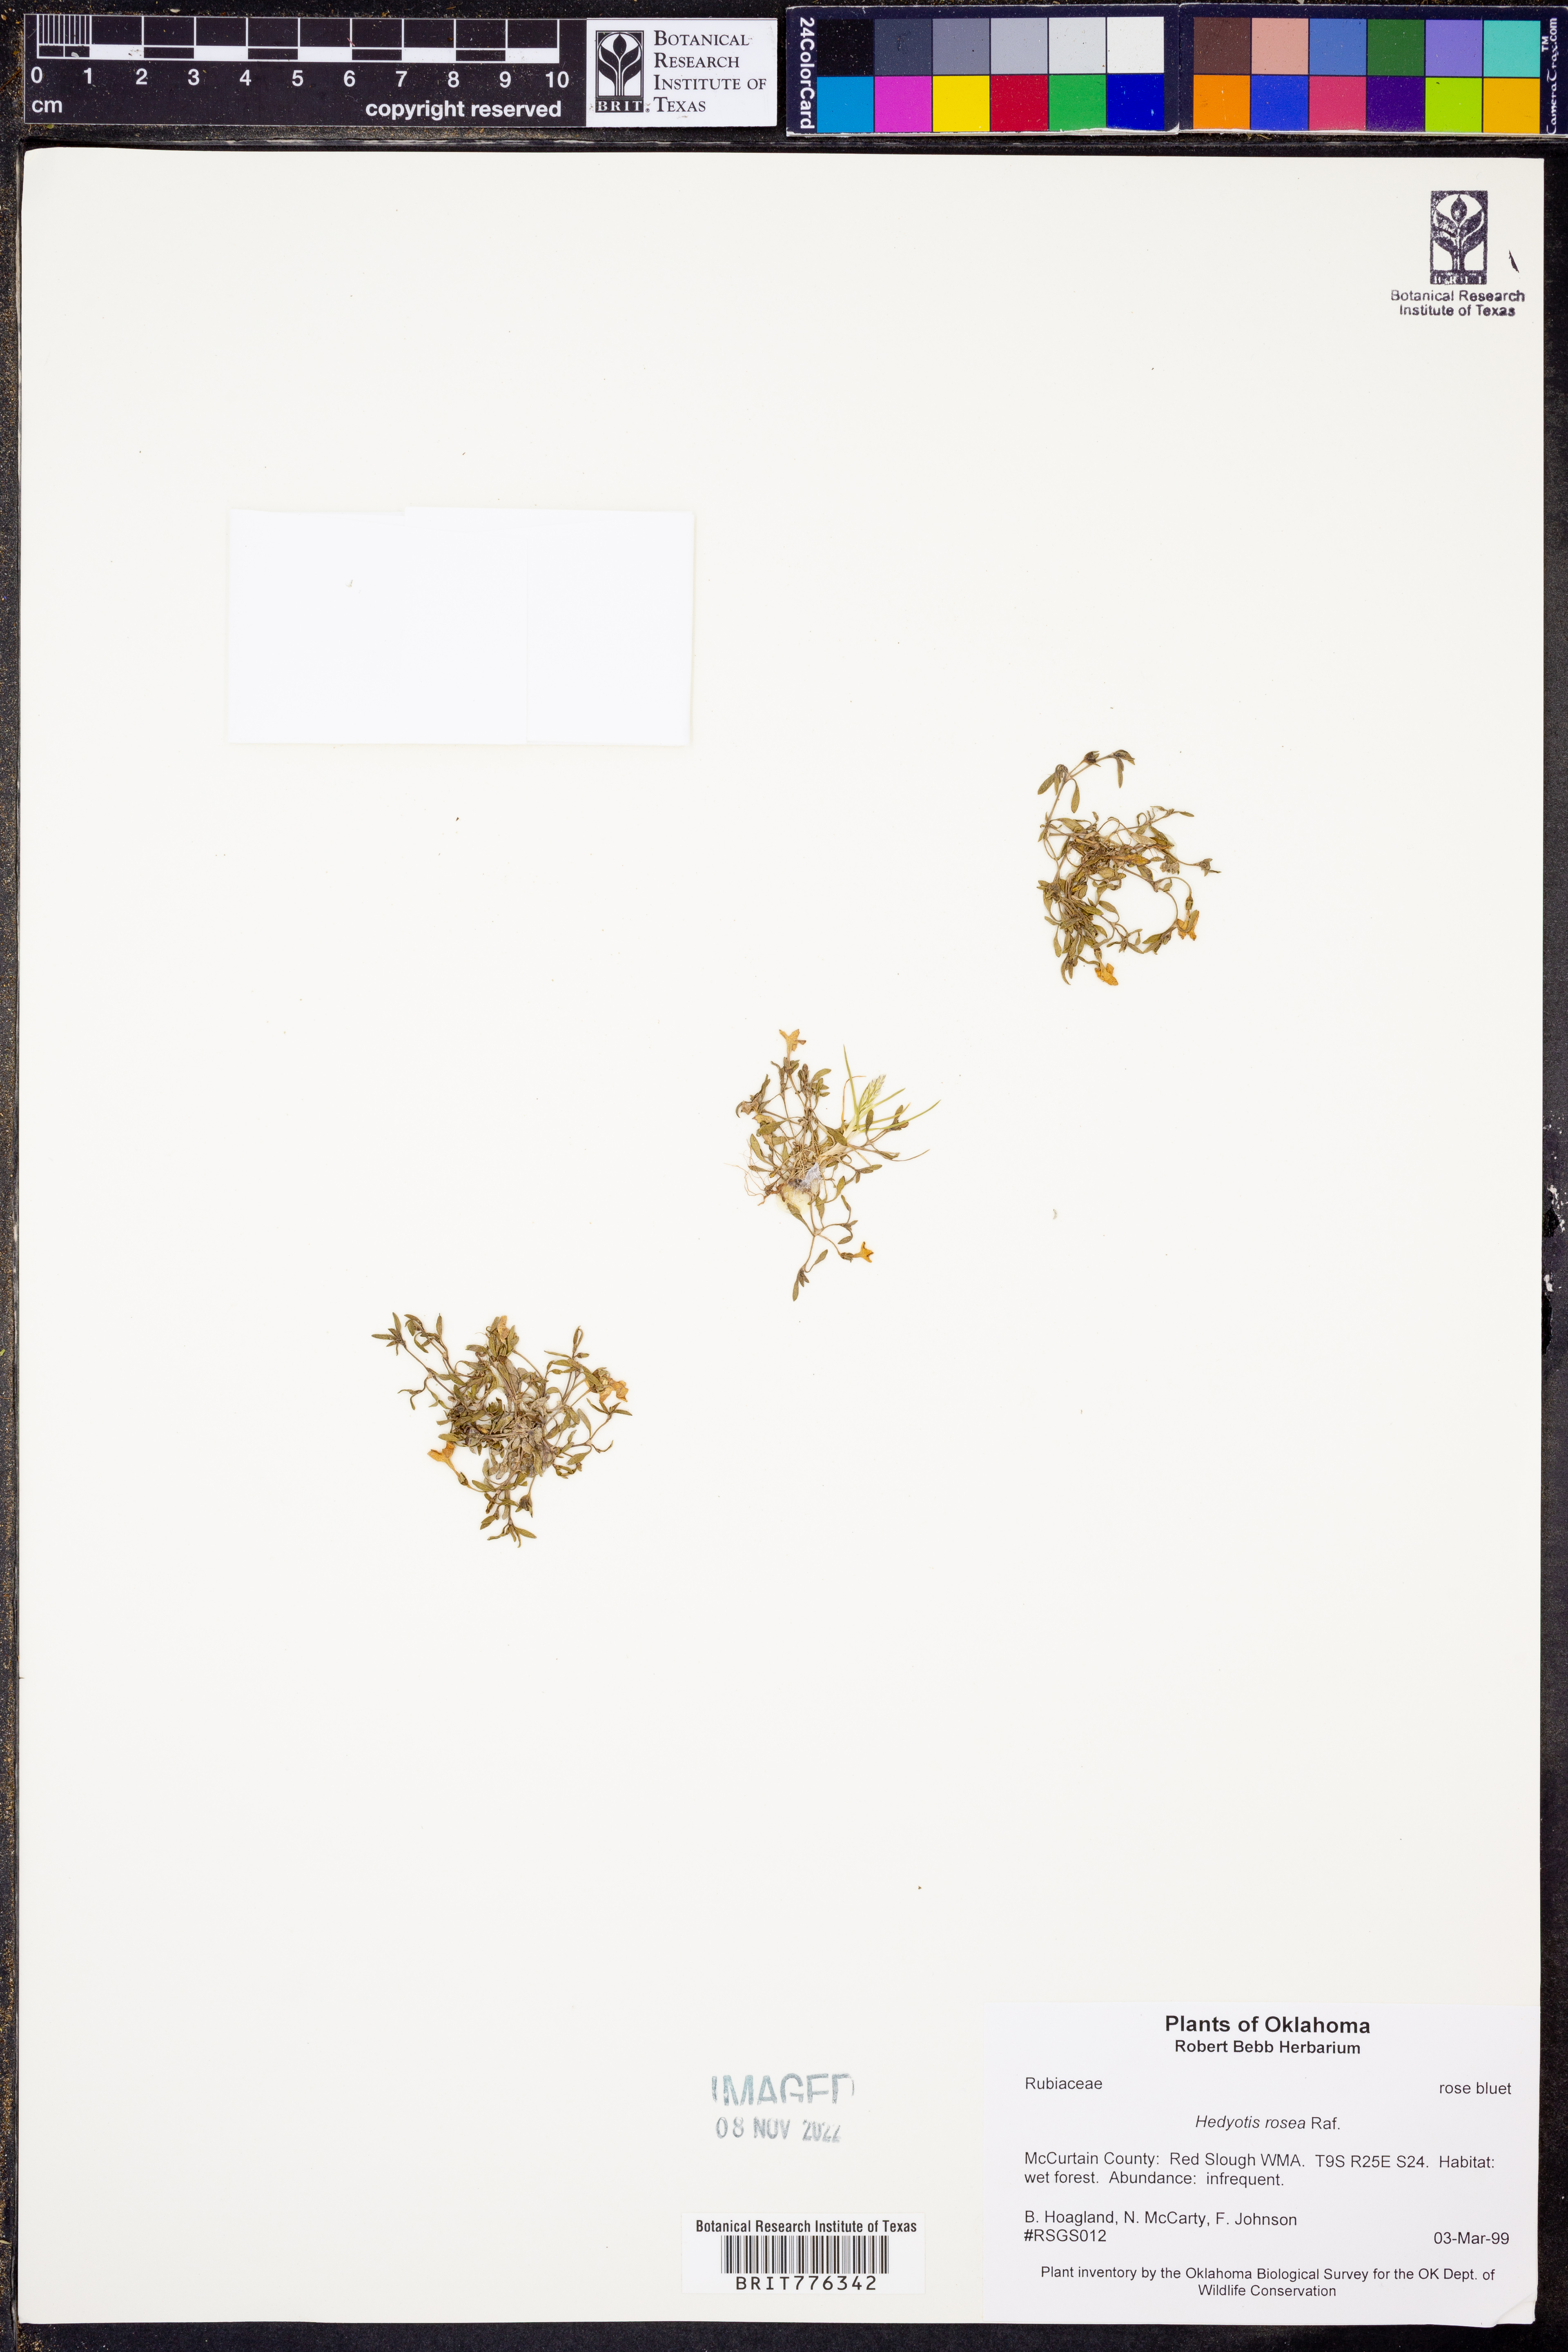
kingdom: Plantae
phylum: Tracheophyta
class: Magnoliopsida
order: Gentianales
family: Rubiaceae
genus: Houstonia
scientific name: Houstonia rosea
